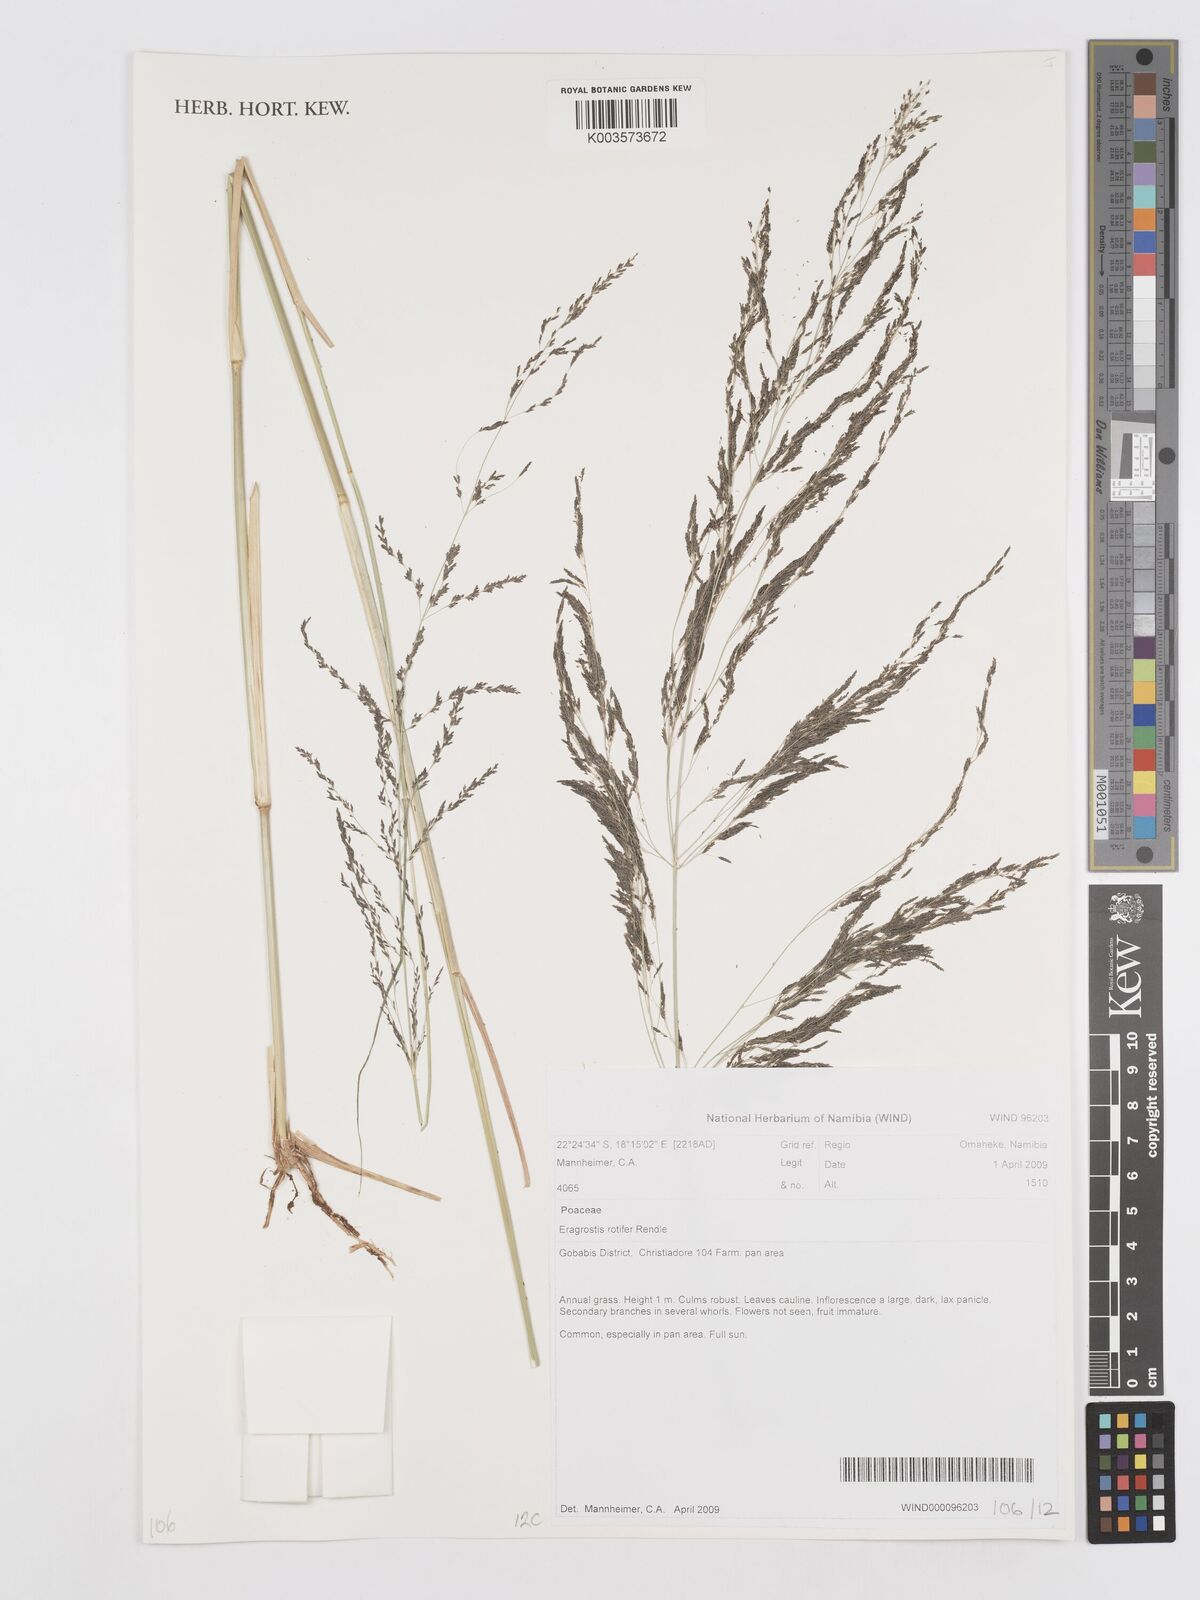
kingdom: Plantae
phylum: Tracheophyta
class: Liliopsida
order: Poales
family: Poaceae
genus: Eragrostis
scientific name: Eragrostis rotifer
